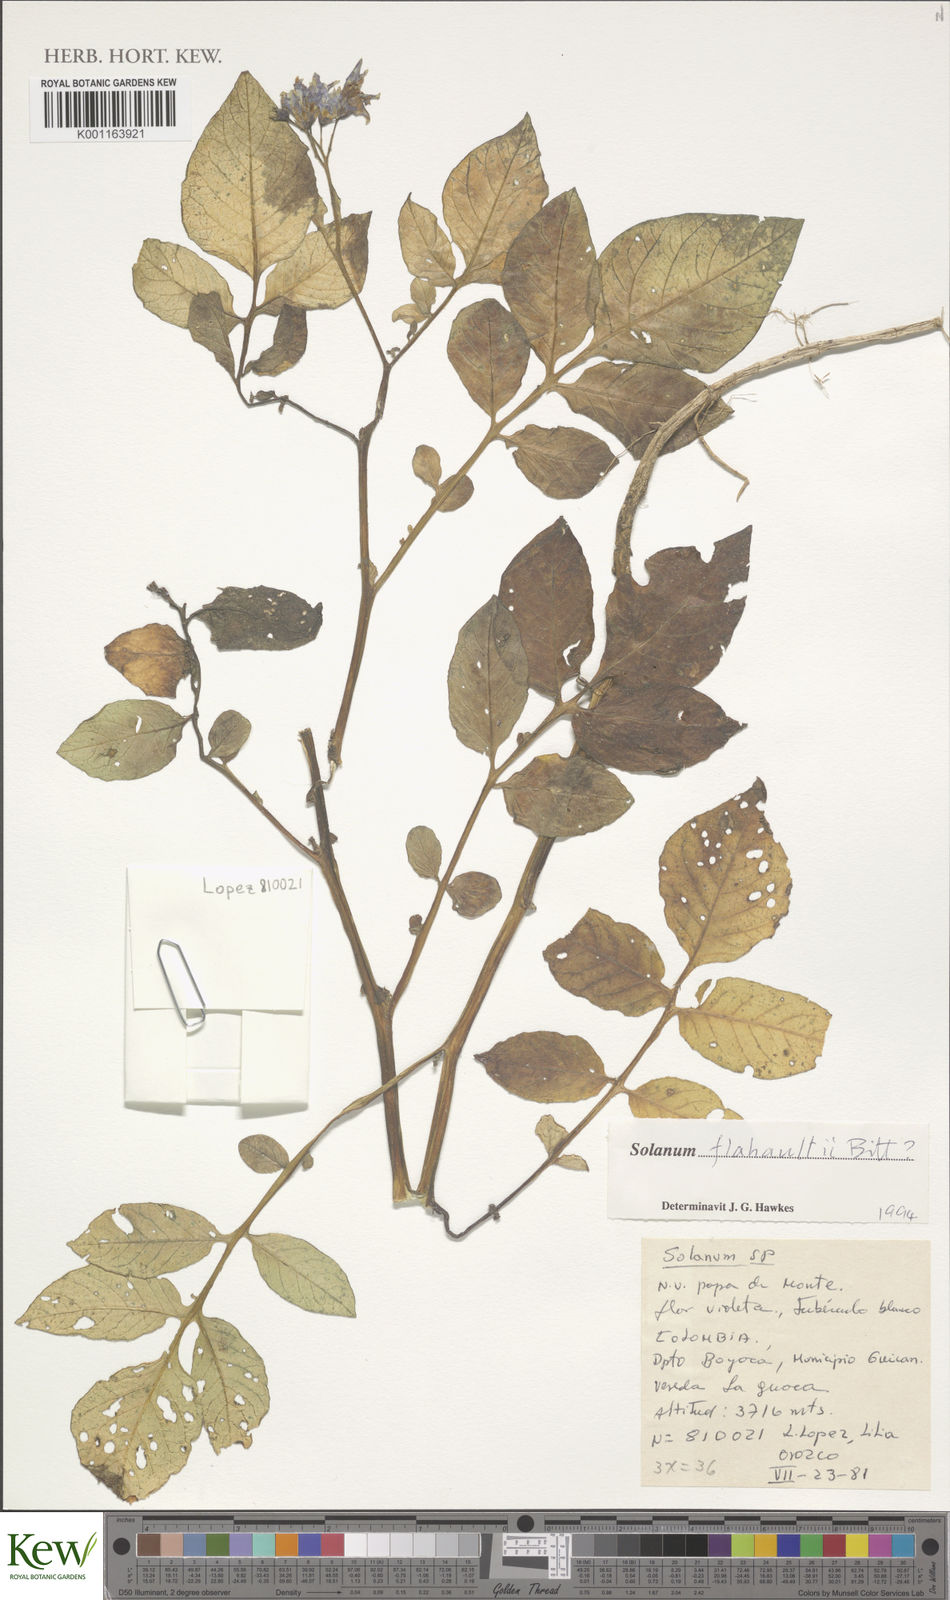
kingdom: Plantae
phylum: Tracheophyta
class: Magnoliopsida
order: Solanales
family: Solanaceae
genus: Solanum
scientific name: Solanum flahaultii
